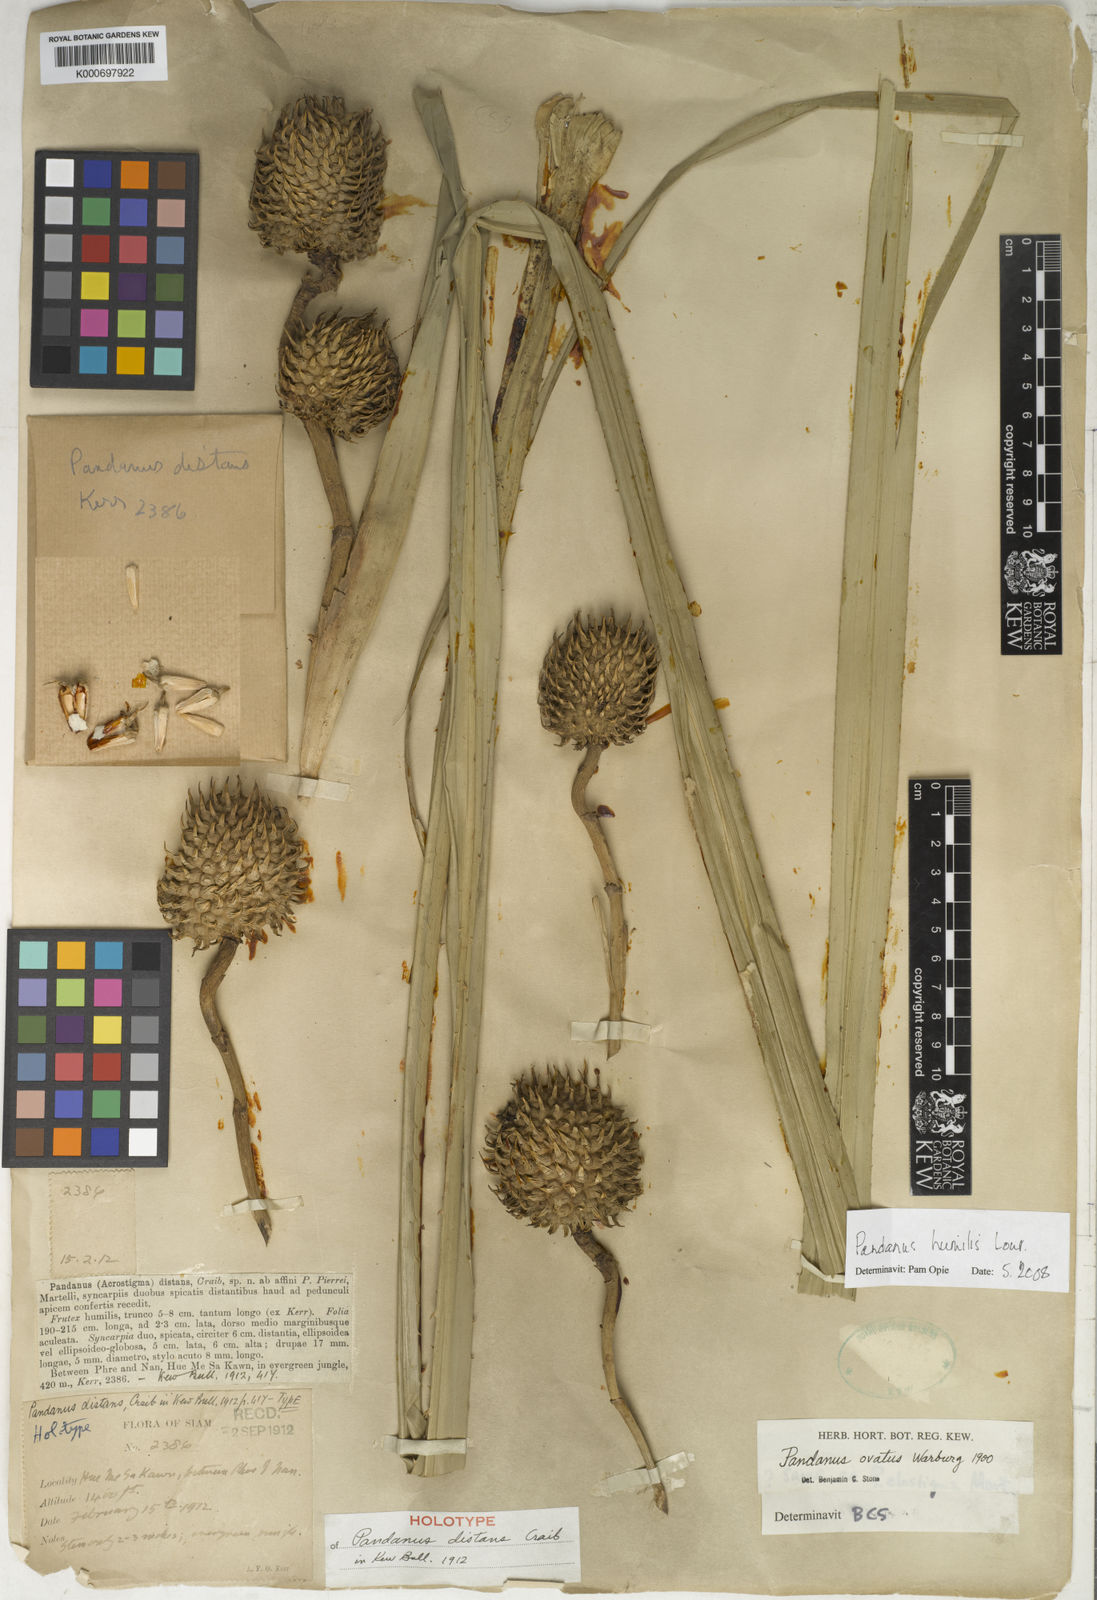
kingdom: Plantae
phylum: Tracheophyta
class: Liliopsida
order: Pandanales
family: Pandanaceae
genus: Benstonea
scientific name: Benstonea humilis
